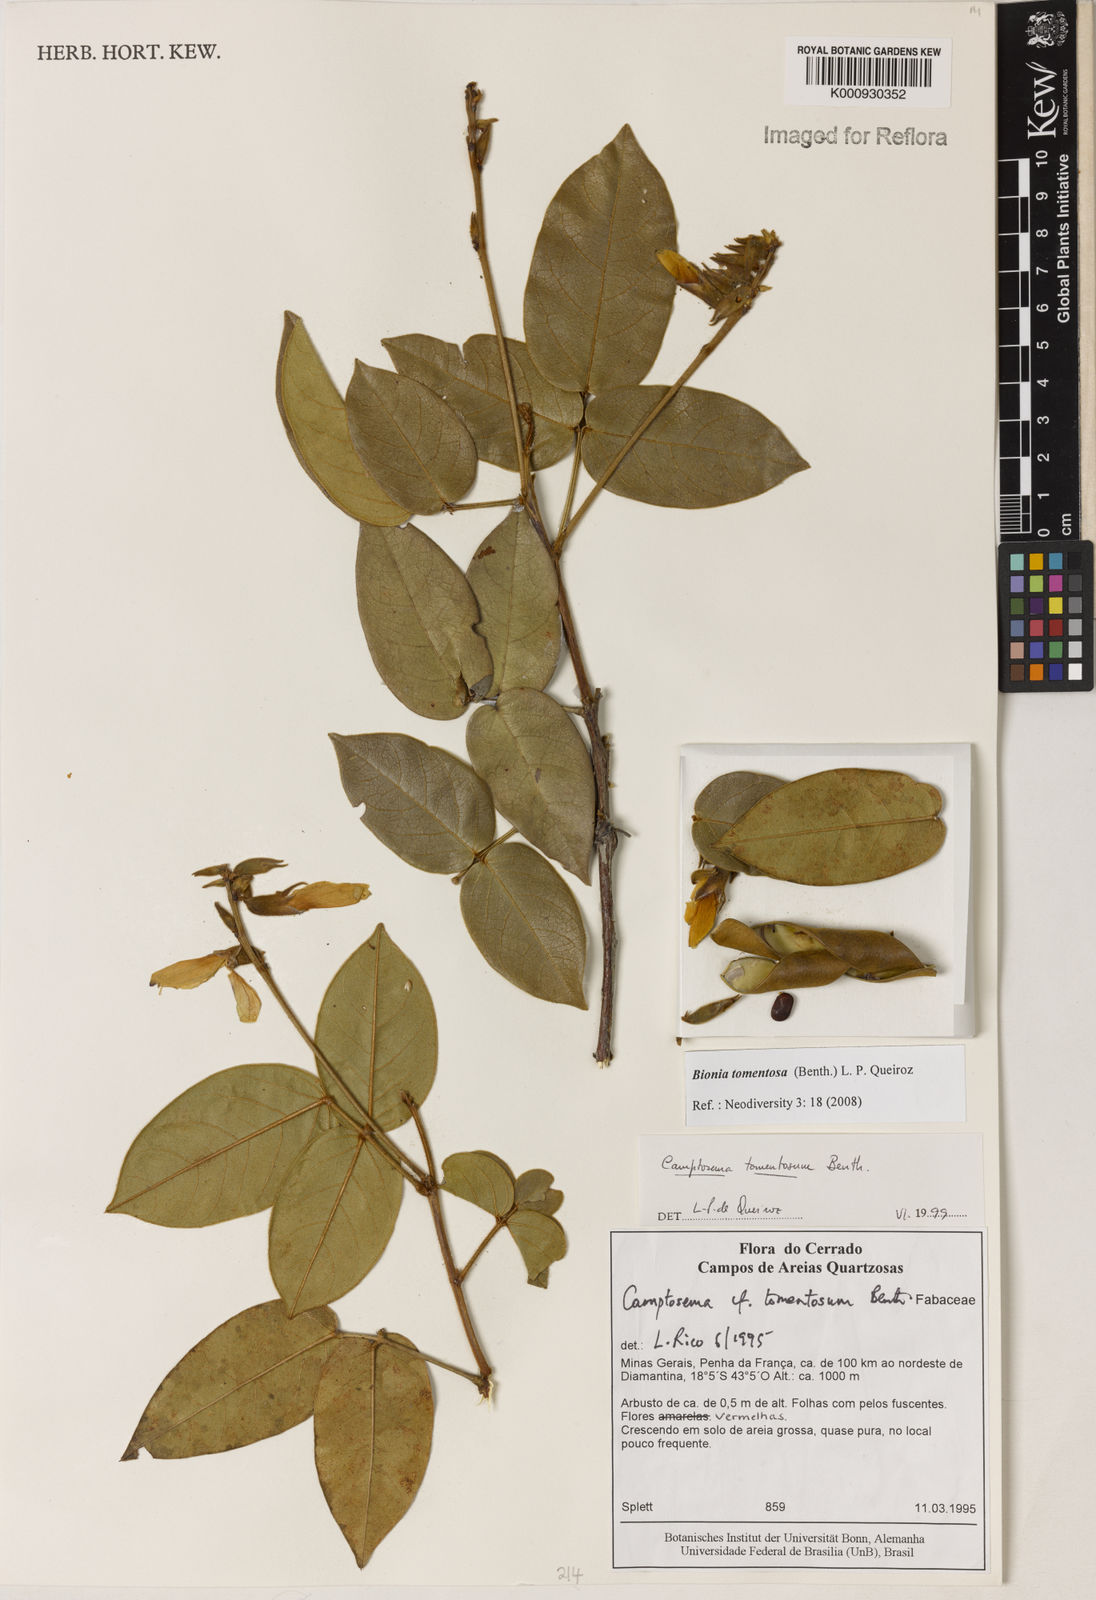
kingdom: Plantae
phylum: Tracheophyta
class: Magnoliopsida
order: Fabales
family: Fabaceae
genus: Camptosema
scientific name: Camptosema tomentosum
